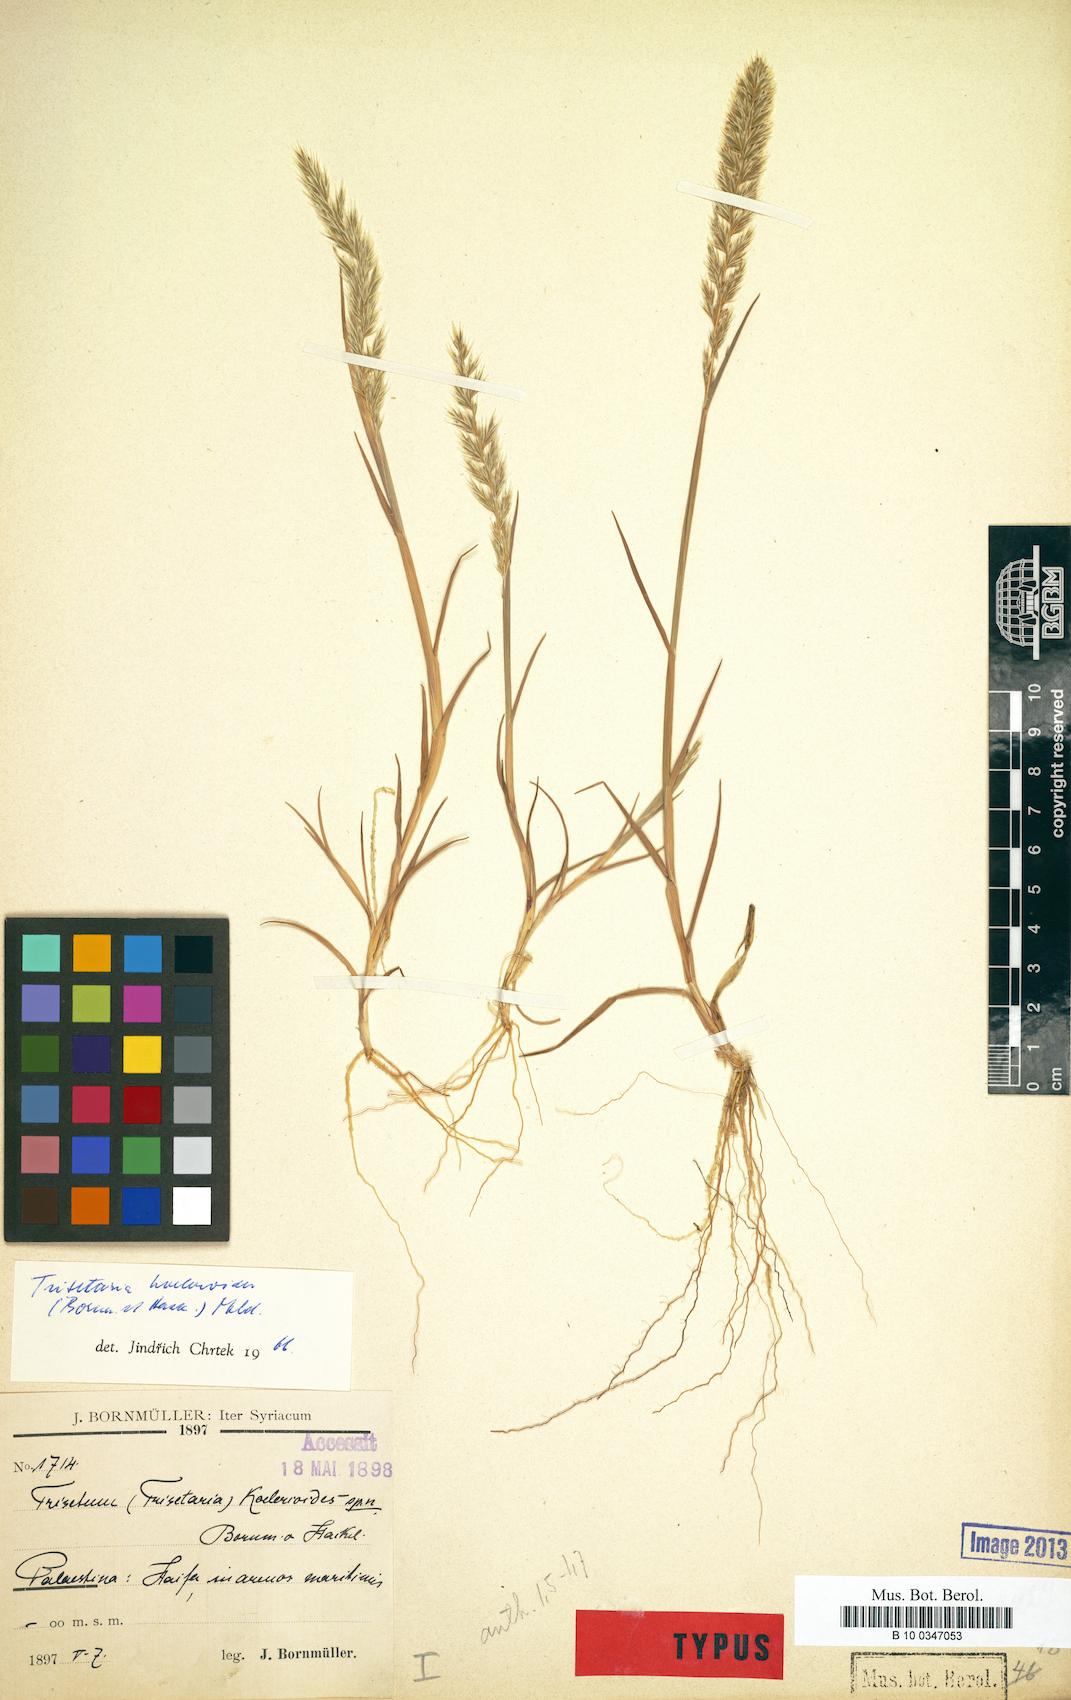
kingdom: Plantae
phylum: Tracheophyta
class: Liliopsida
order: Poales
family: Poaceae
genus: Trisetaria
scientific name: Trisetaria koelerioides
